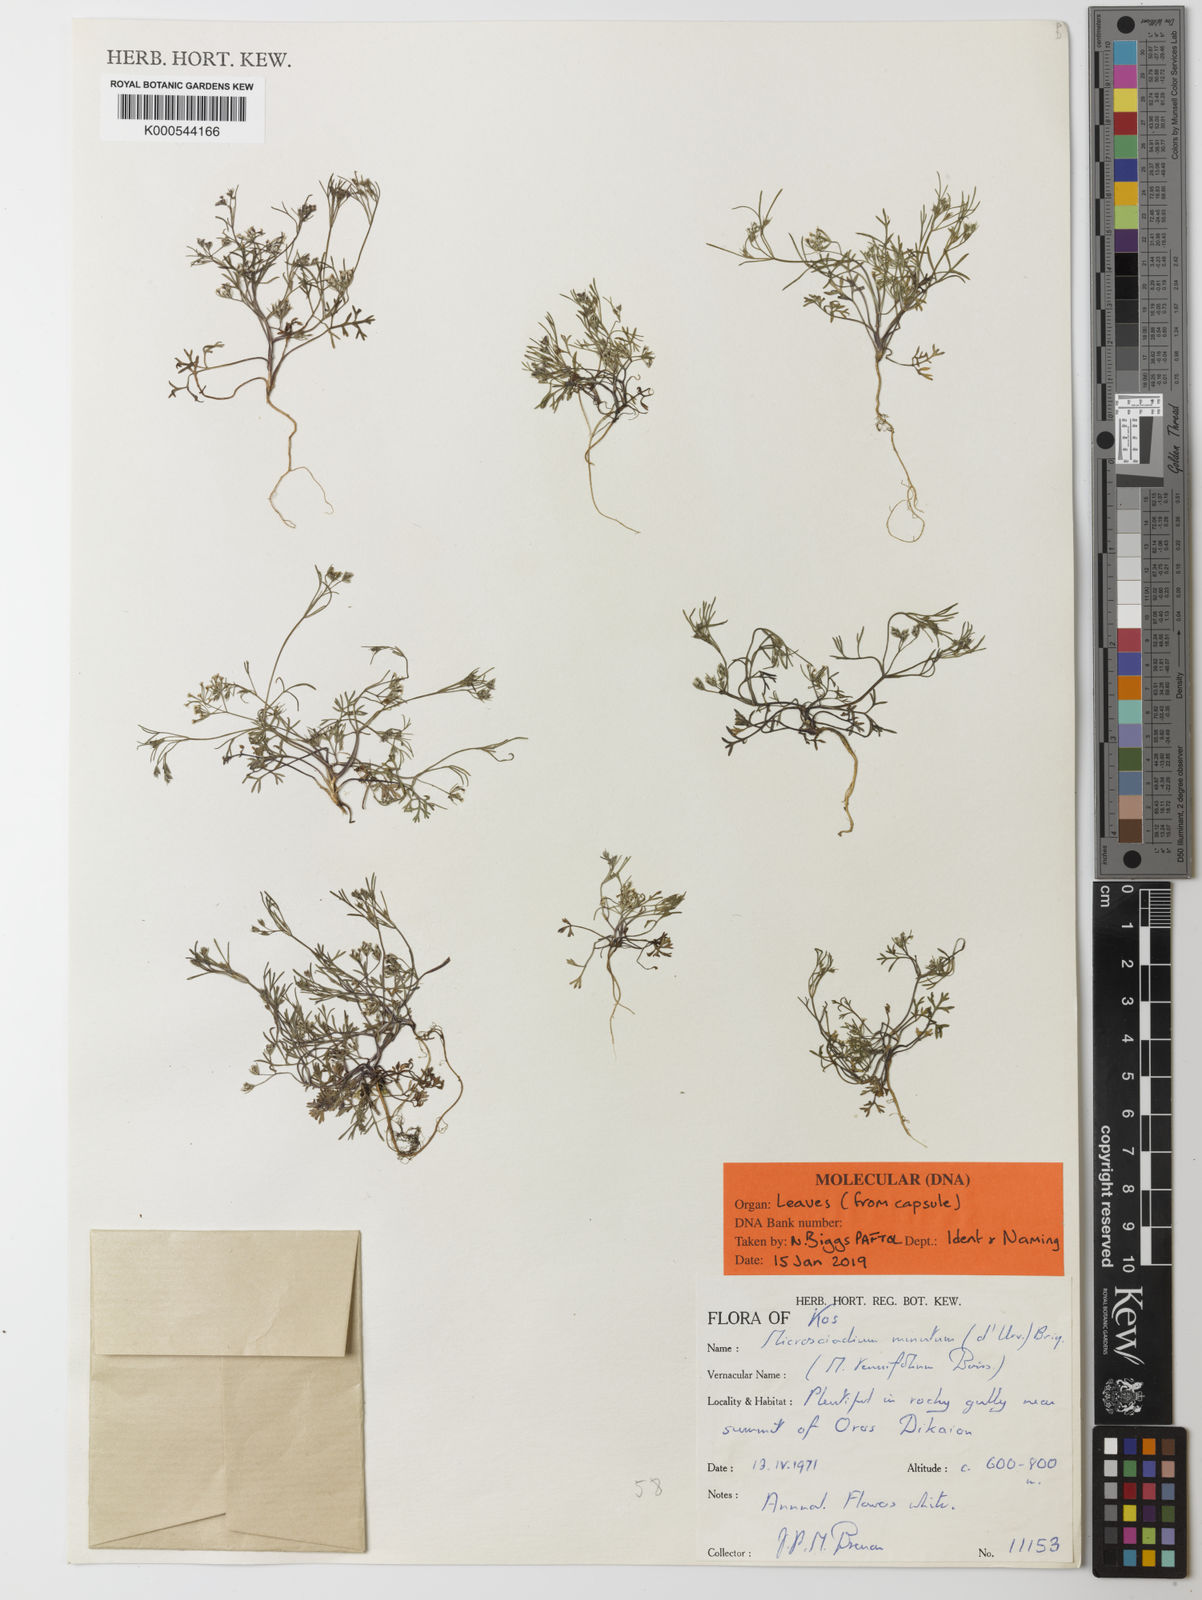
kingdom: Plantae
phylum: Tracheophyta
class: Magnoliopsida
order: Apiales
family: Apiaceae
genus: Microsciadium
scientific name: Microsciadium minutum
